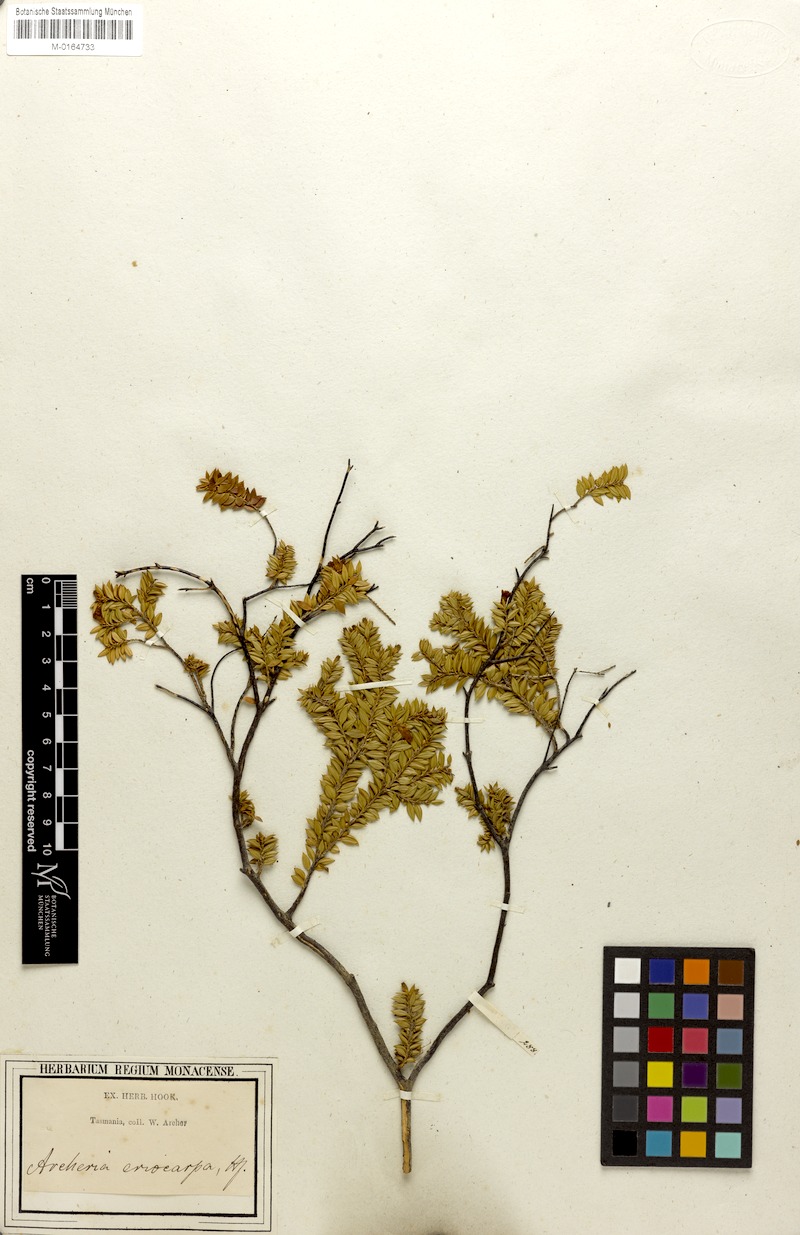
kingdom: Plantae
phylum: Tracheophyta
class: Magnoliopsida
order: Ericales
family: Ericaceae
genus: Archeria
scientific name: Archeria eriocarpa
